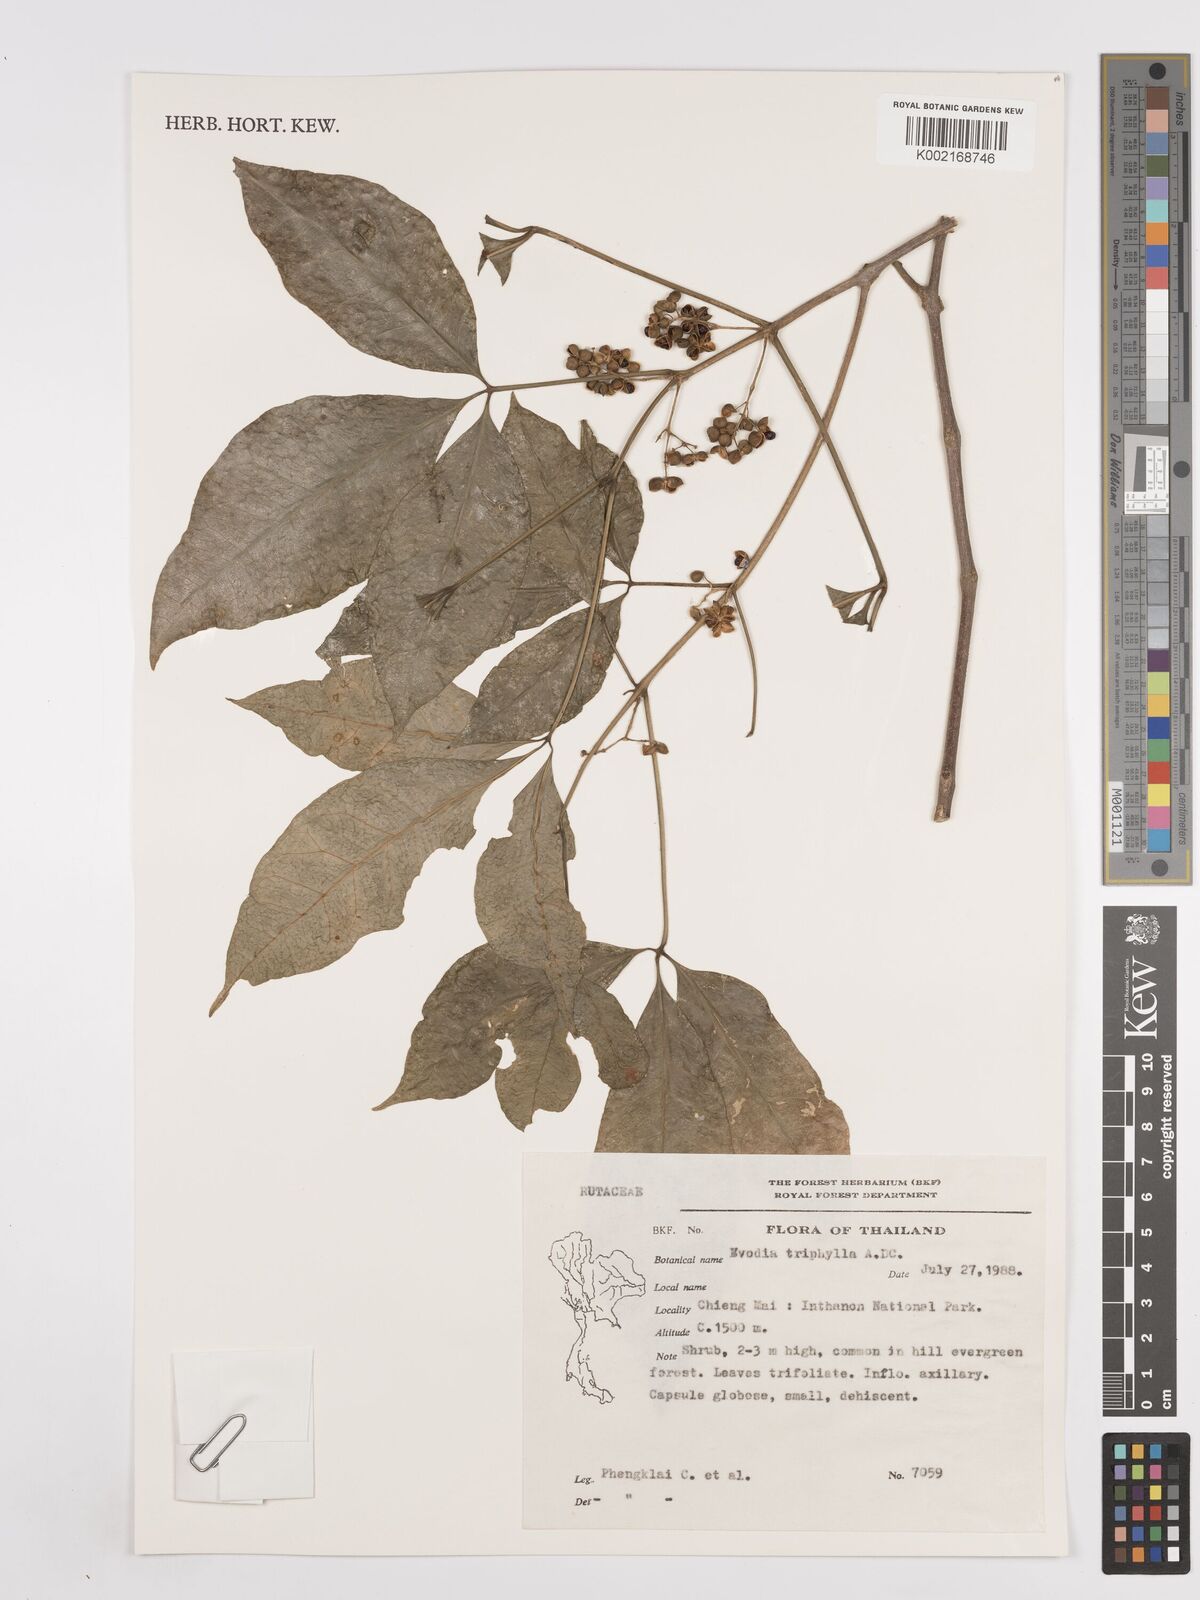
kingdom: Plantae
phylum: Tracheophyta
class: Magnoliopsida
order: Sapindales
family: Rutaceae
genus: Euodia
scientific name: Euodia
